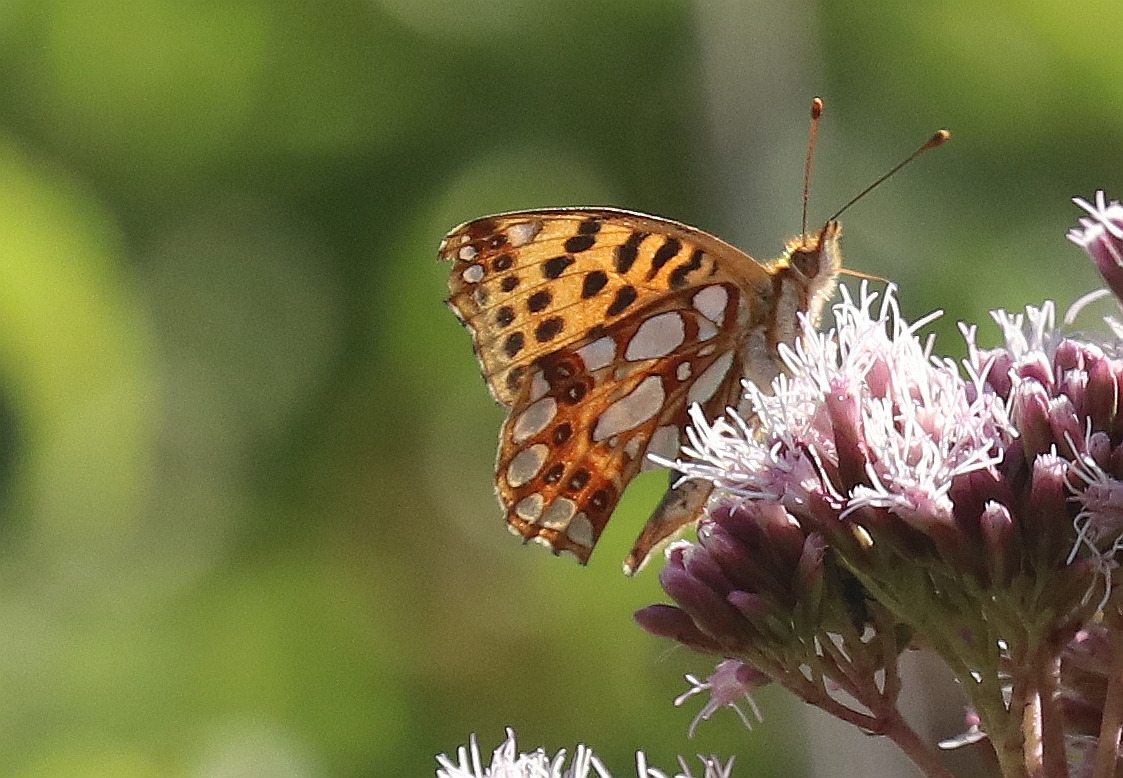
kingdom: Animalia
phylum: Arthropoda
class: Insecta
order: Lepidoptera
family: Nymphalidae
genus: Issoria
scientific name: Issoria lathonia
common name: Storplettet perlemorsommerfugl
